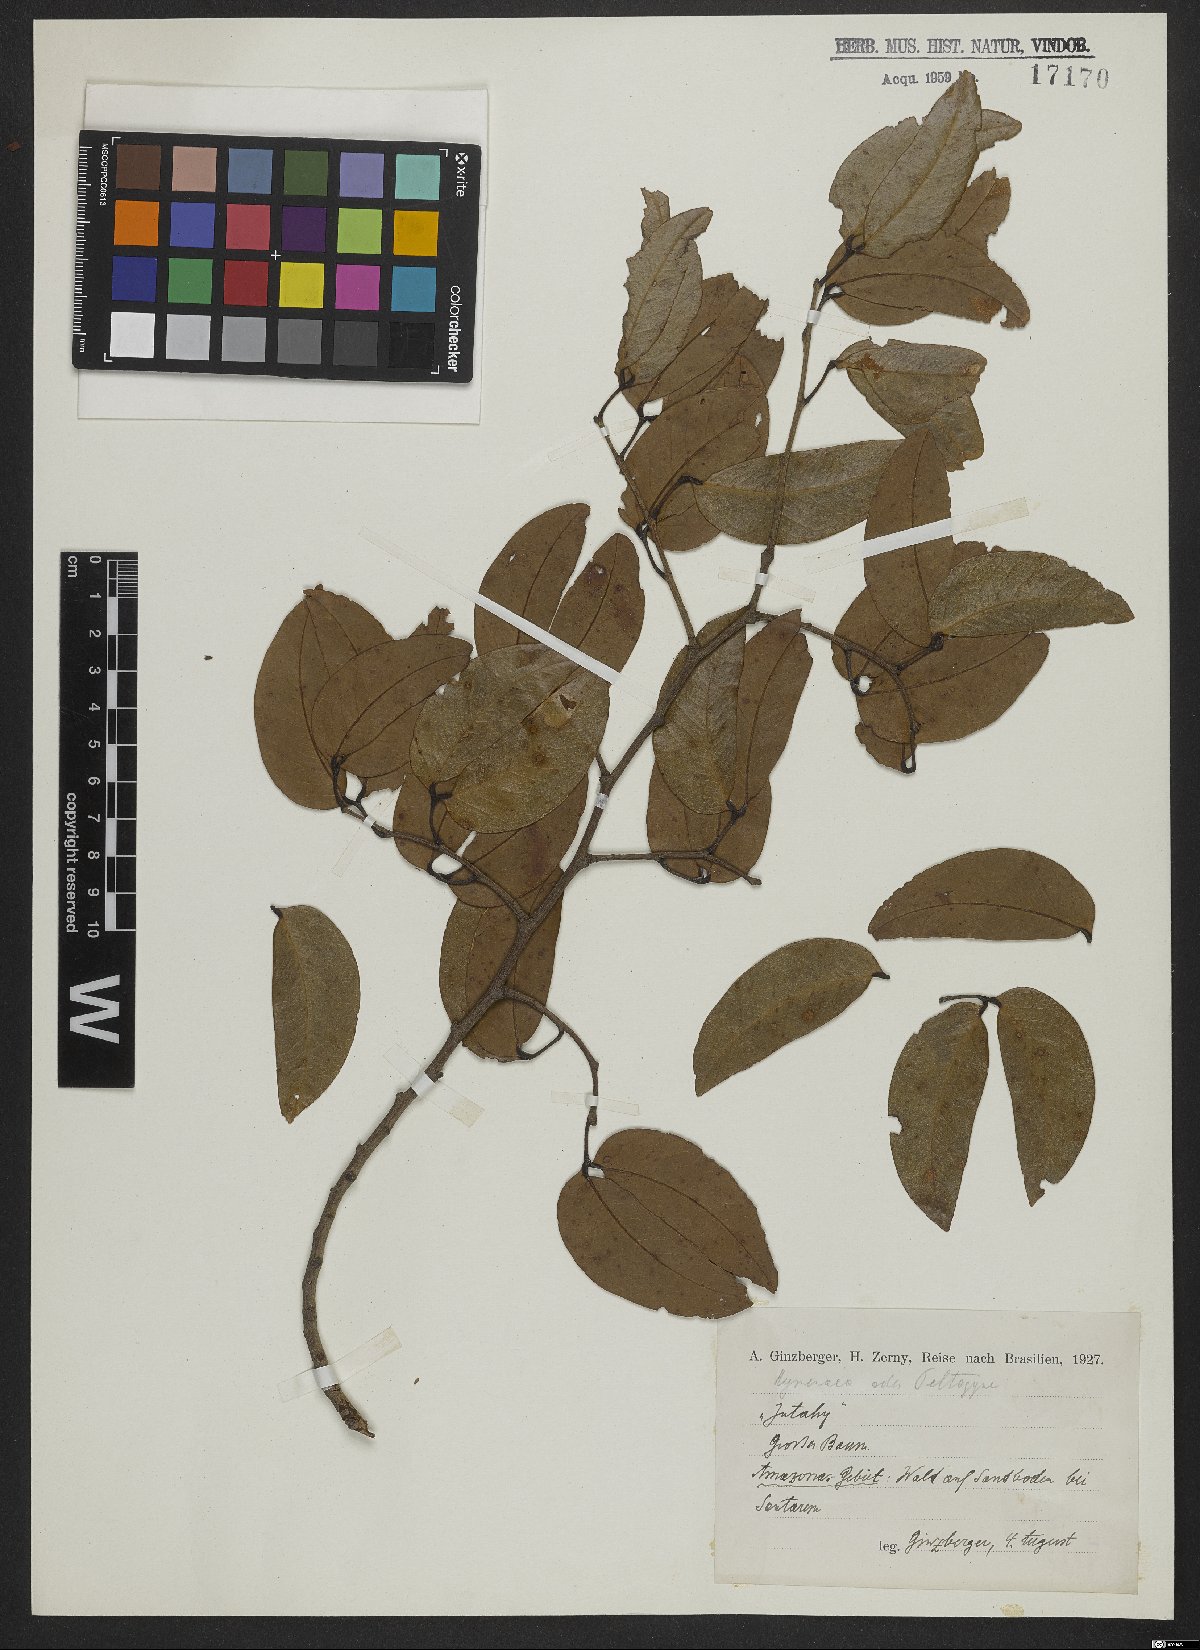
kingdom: Plantae
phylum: Tracheophyta
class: Magnoliopsida
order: Fabales
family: Fabaceae
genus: Peltogyne
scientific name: Peltogyne
